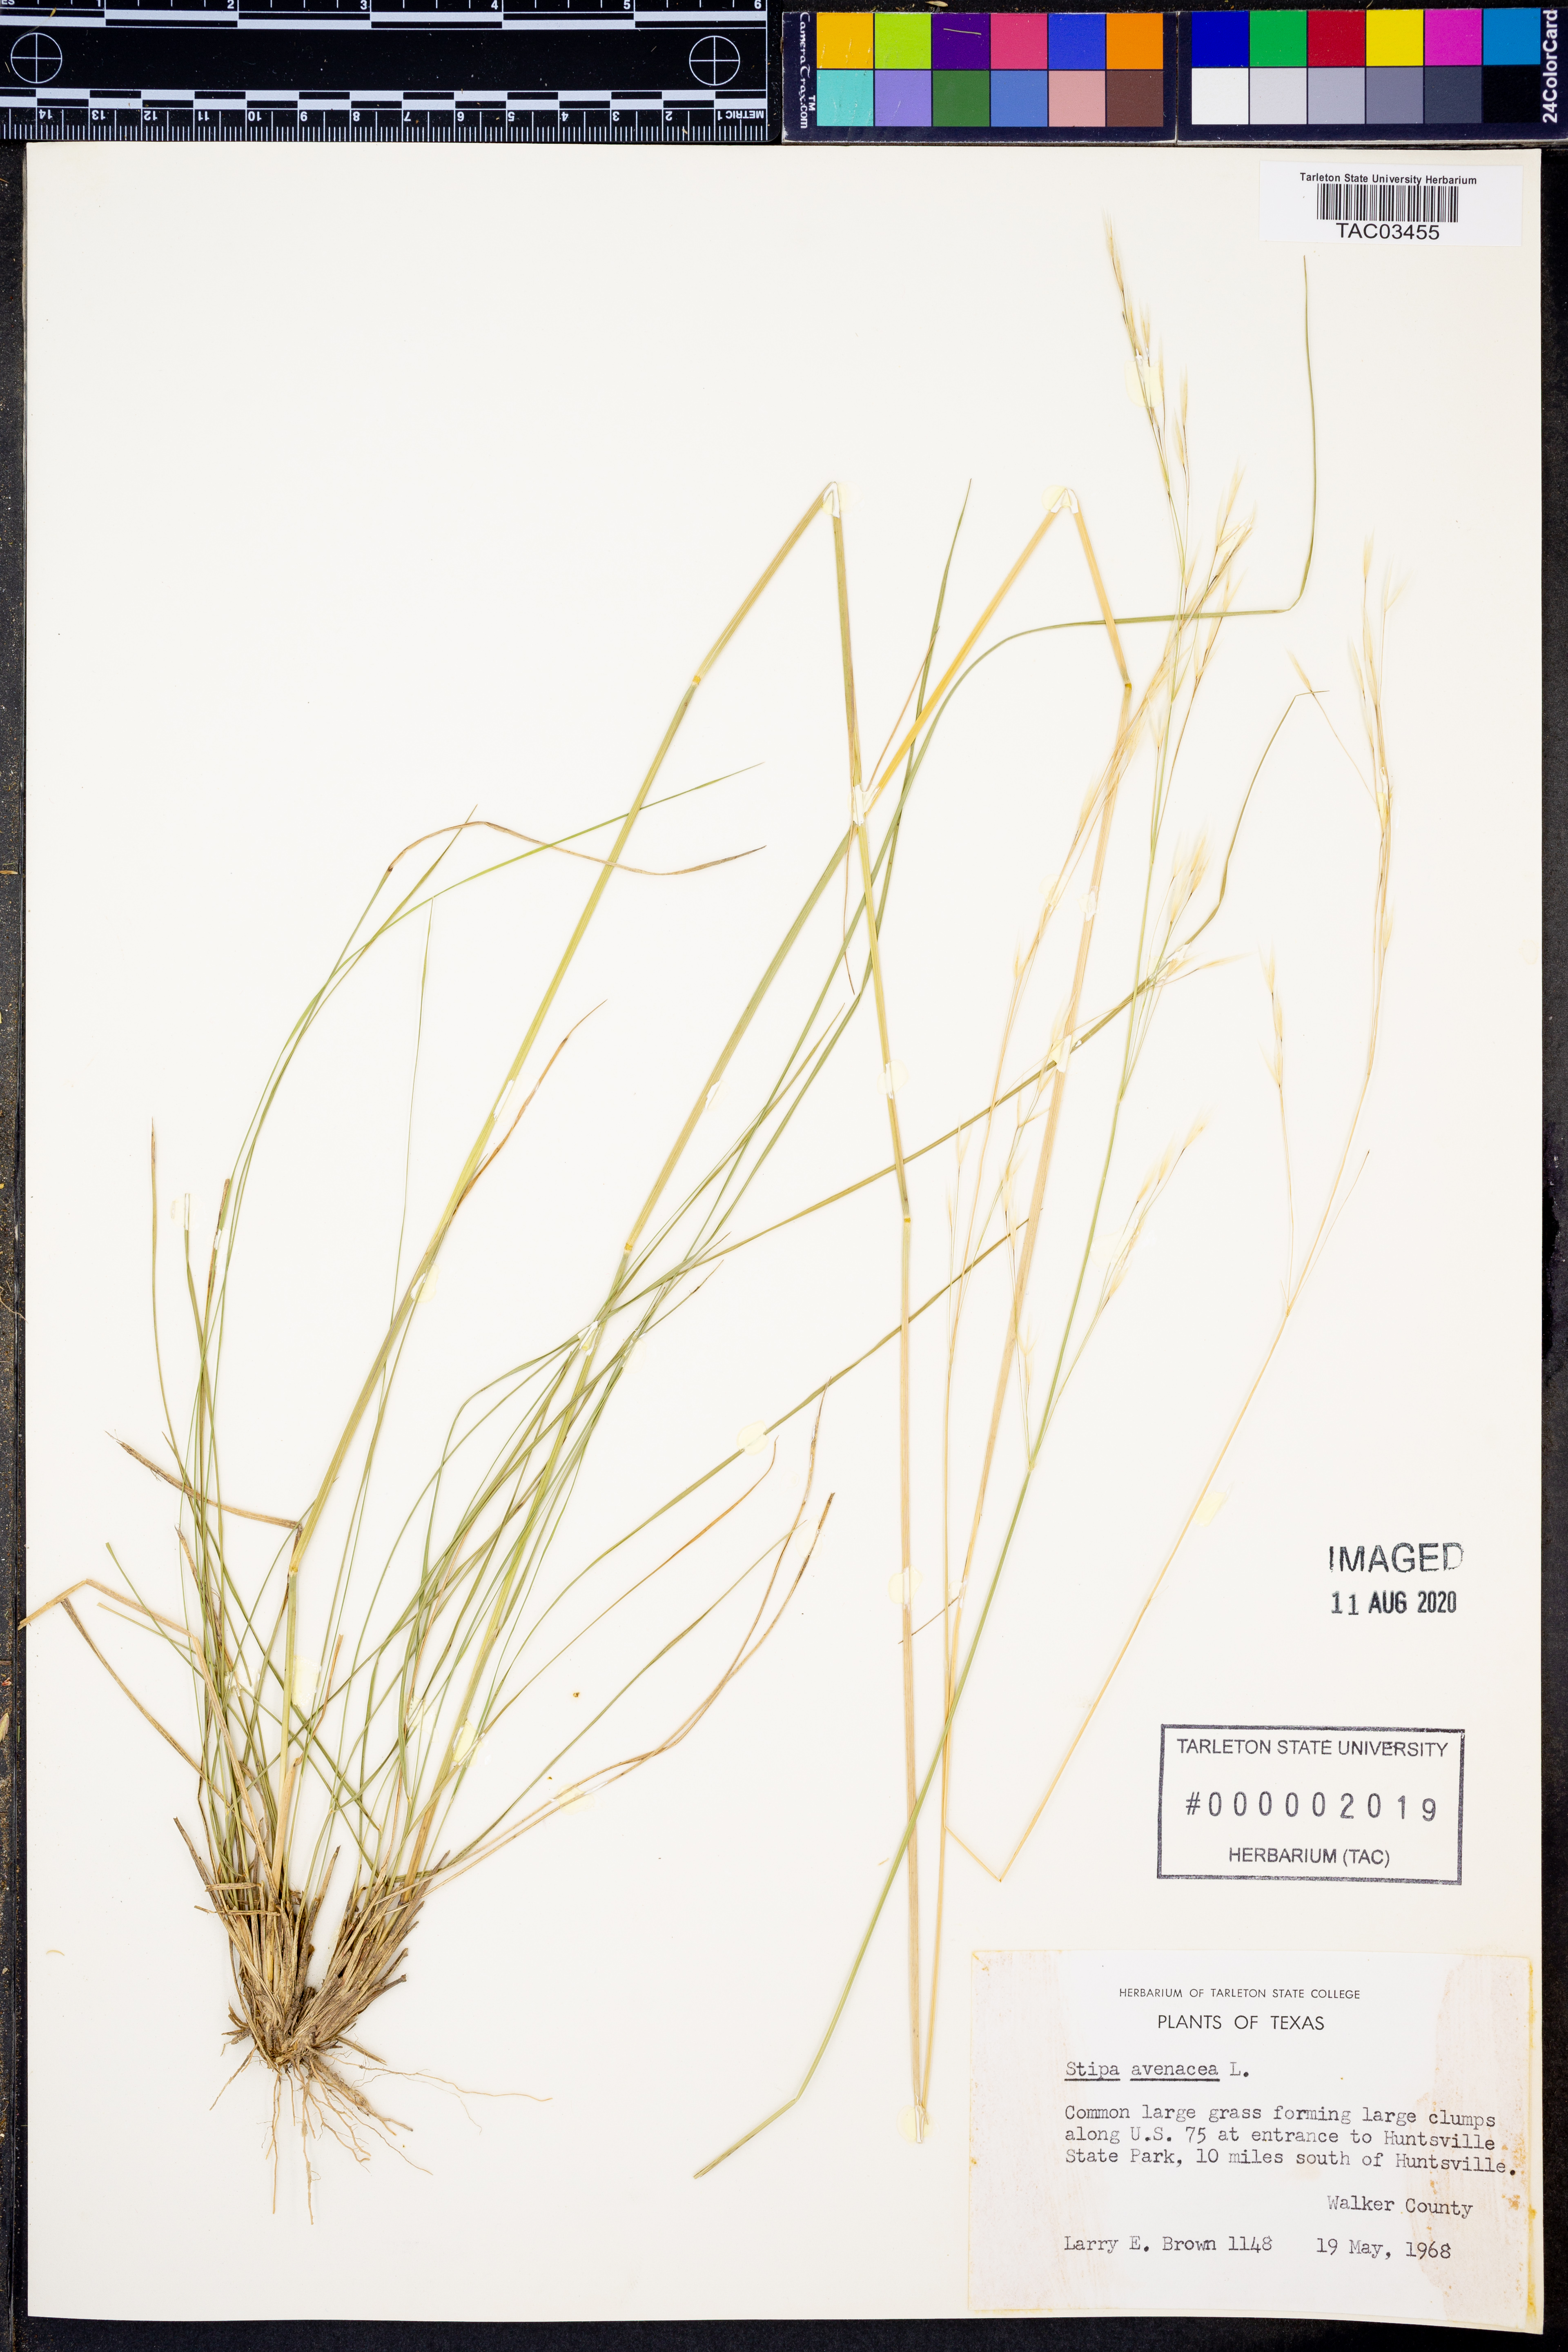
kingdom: Plantae
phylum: Tracheophyta
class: Liliopsida
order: Poales
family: Poaceae
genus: Piptochaetium
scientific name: Piptochaetium avenaceum
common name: Black bunchgrass
